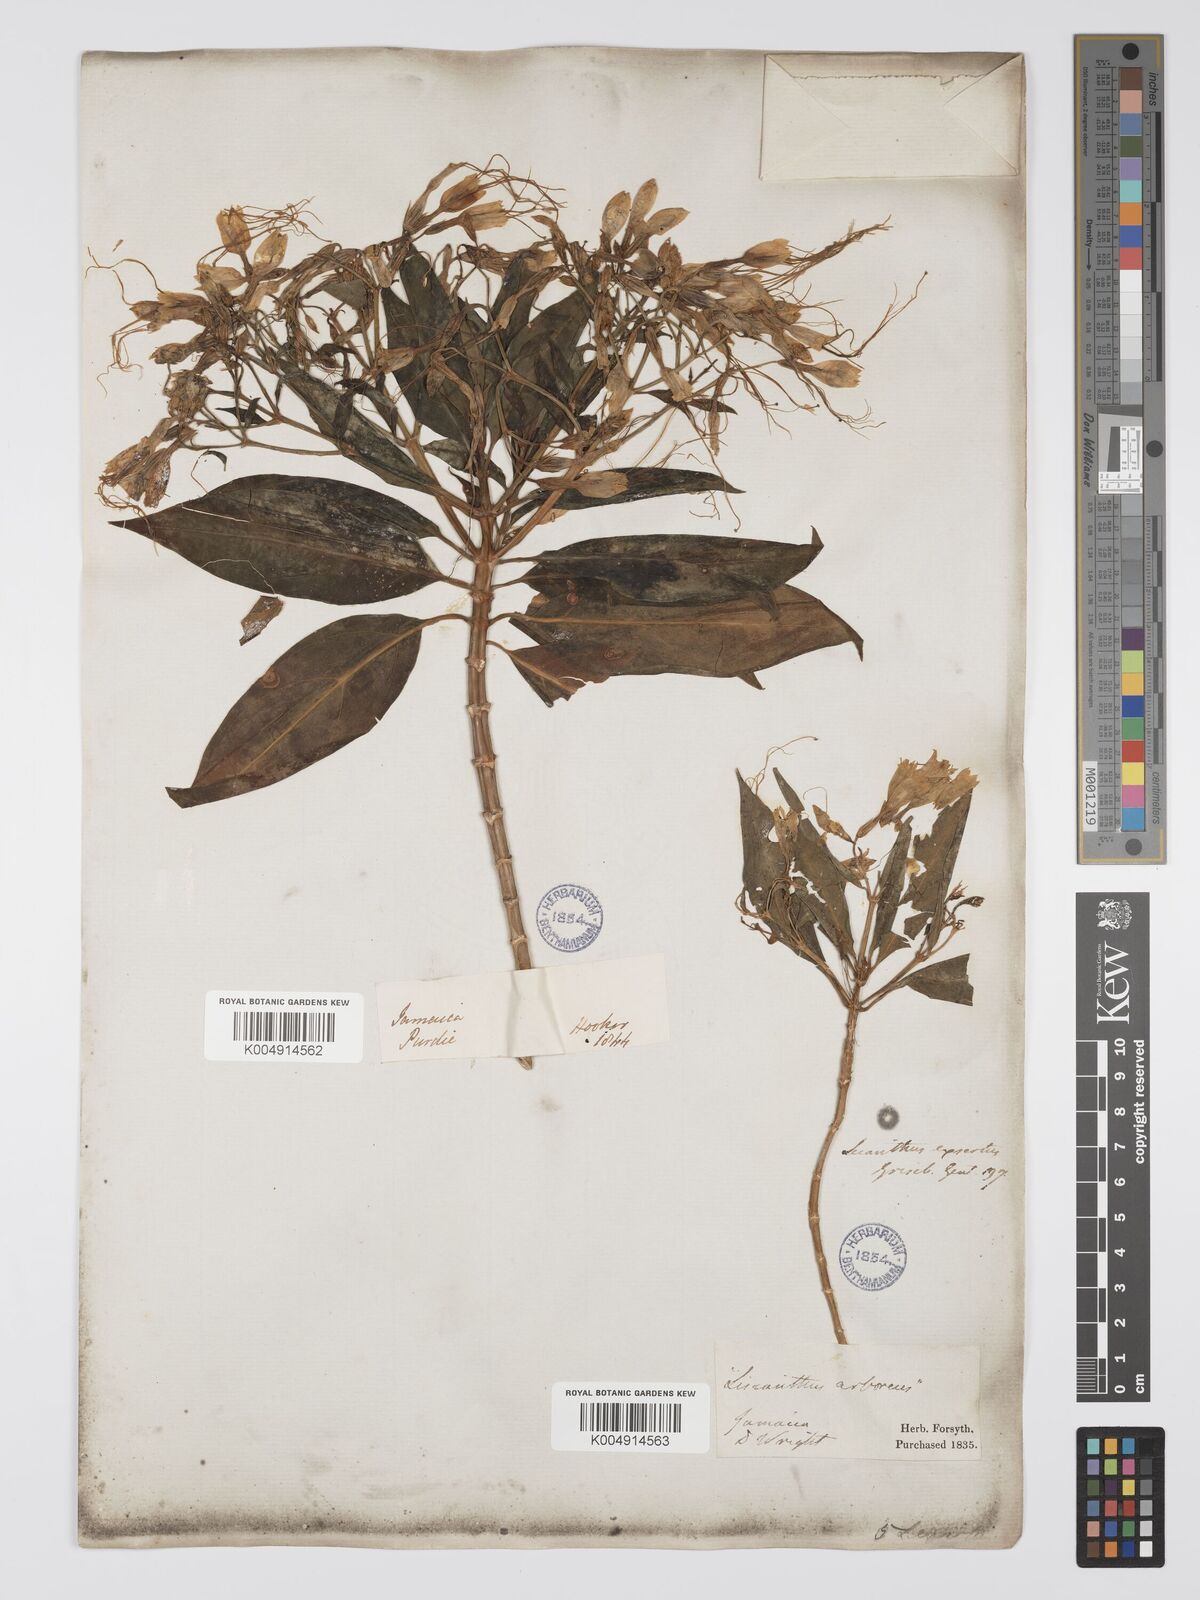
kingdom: Plantae
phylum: Tracheophyta
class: Magnoliopsida
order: Gentianales
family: Gentianaceae
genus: Lisianthus
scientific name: Lisianthus exsertus
